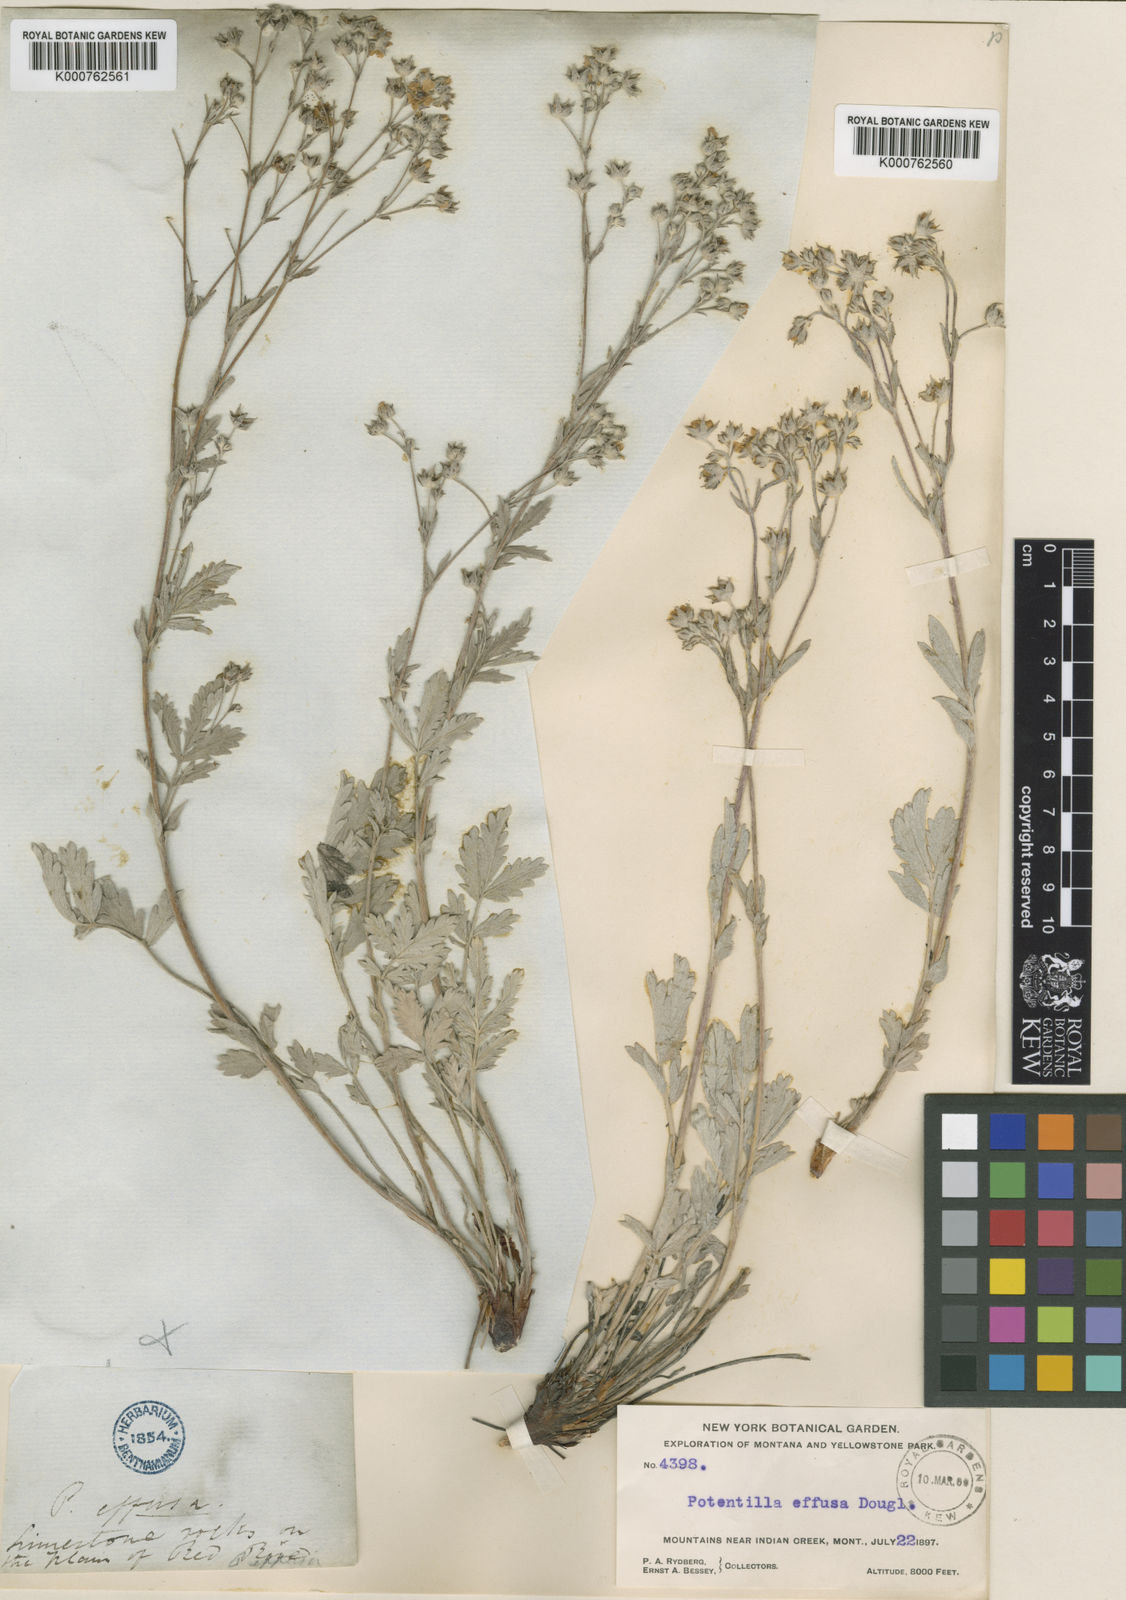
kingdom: Plantae
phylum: Tracheophyta
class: Magnoliopsida
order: Rosales
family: Rosaceae
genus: Potentilla
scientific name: Potentilla
